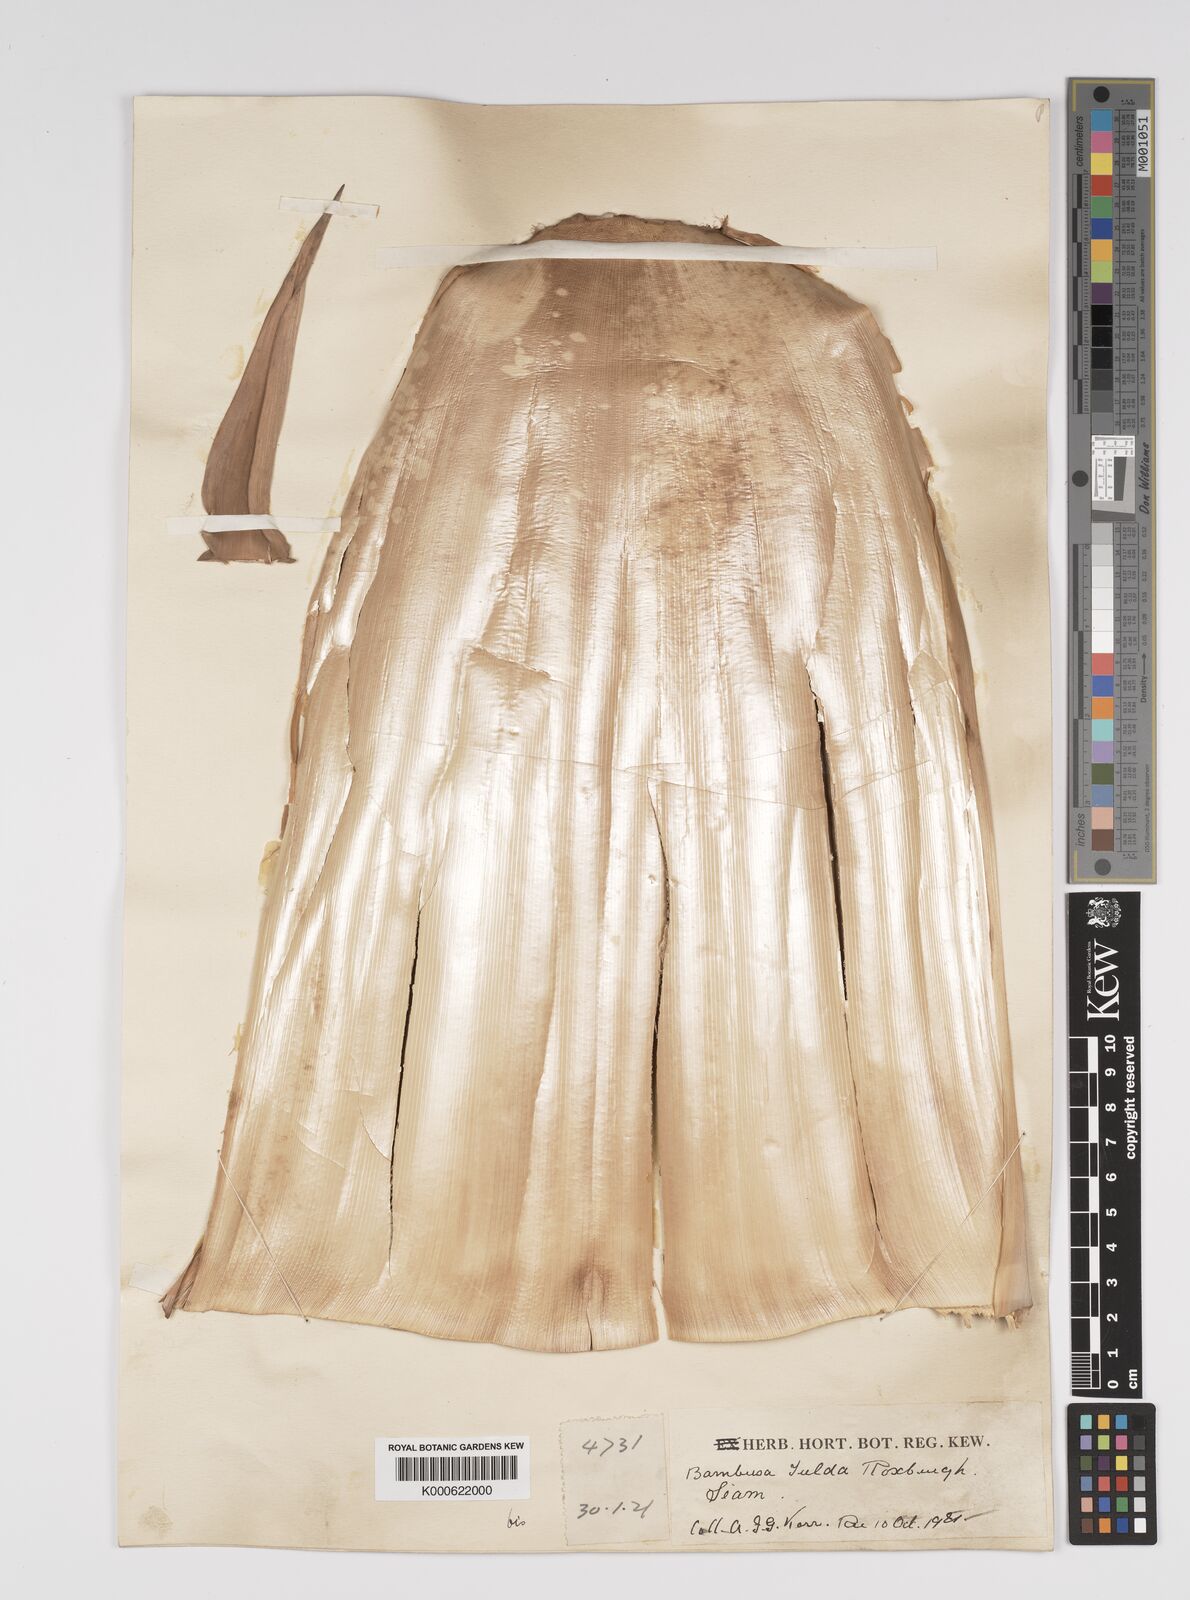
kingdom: Plantae
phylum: Tracheophyta
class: Liliopsida
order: Poales
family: Poaceae
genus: Bambusa
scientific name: Bambusa
